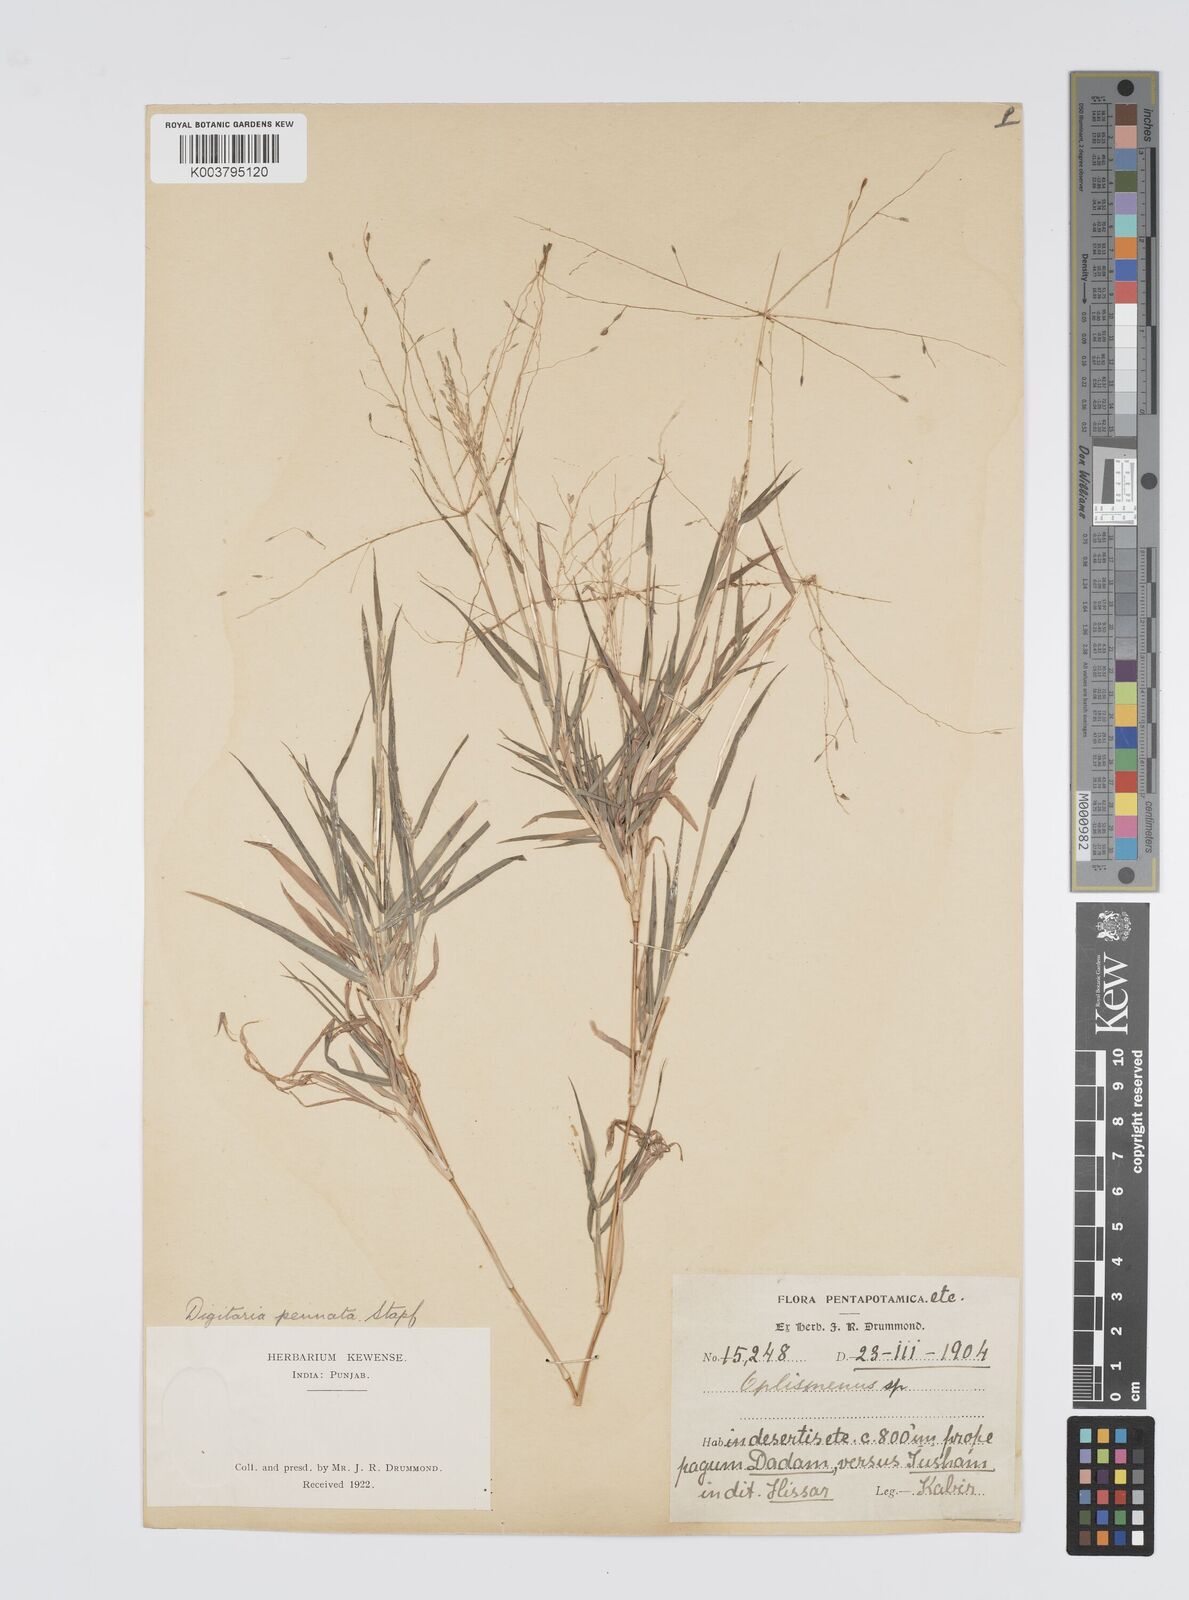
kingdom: Plantae
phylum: Tracheophyta
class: Liliopsida
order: Poales
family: Poaceae
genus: Digitaria
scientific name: Digitaria pennata
